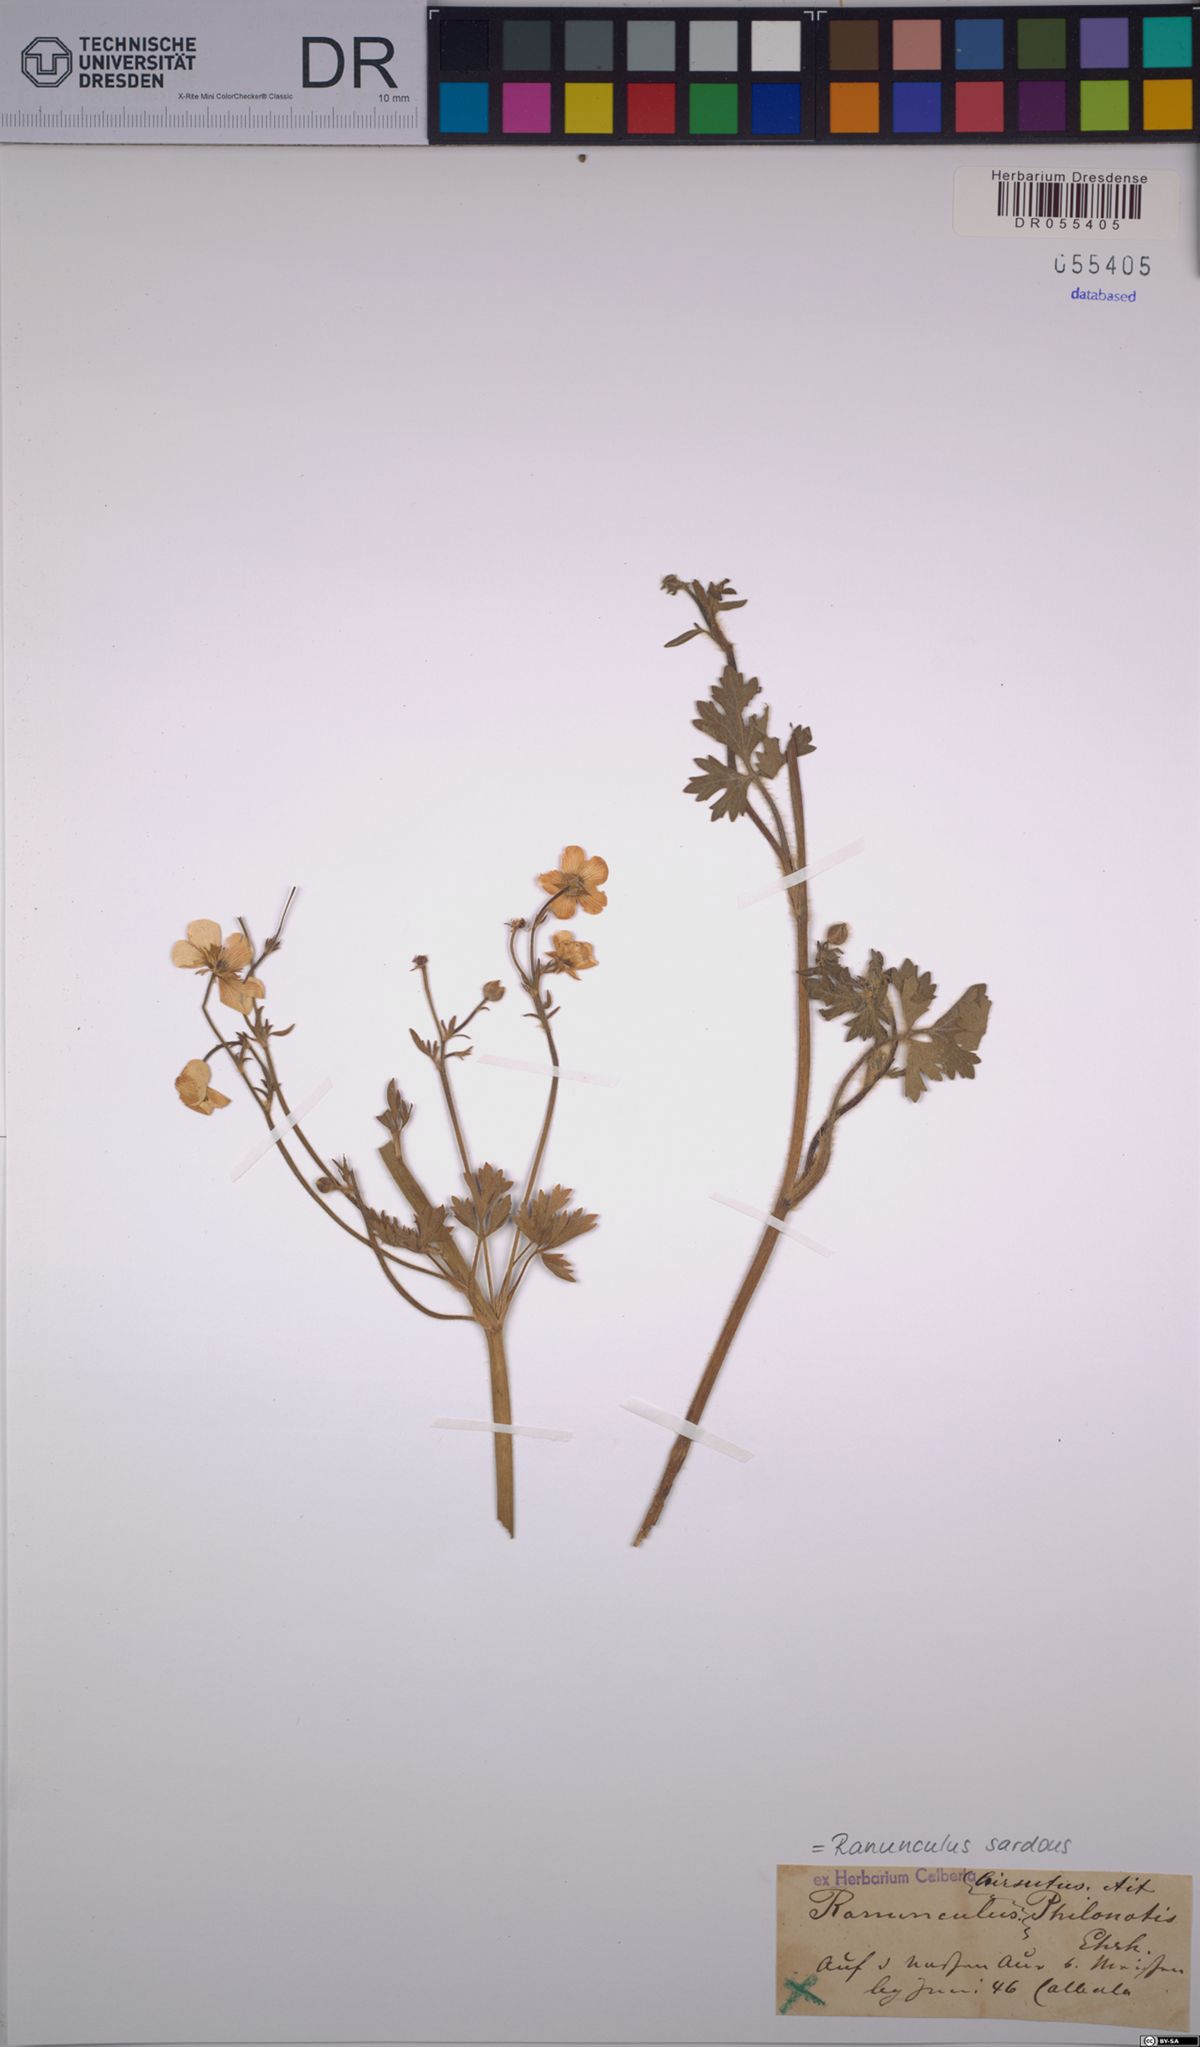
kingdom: Plantae
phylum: Tracheophyta
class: Magnoliopsida
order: Ranunculales
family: Ranunculaceae
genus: Ranunculus
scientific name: Ranunculus sardous
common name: Hairy buttercup
